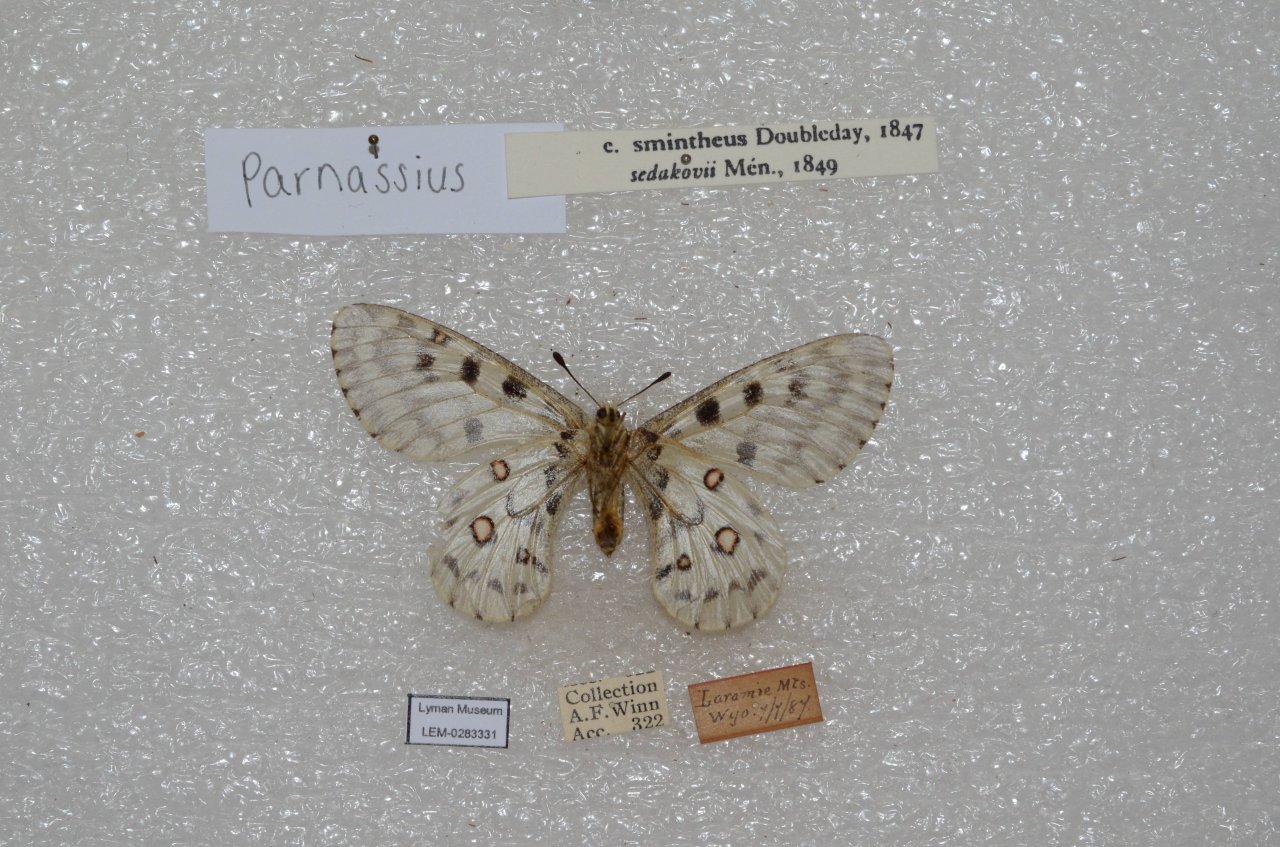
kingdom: Animalia
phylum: Arthropoda
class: Insecta
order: Lepidoptera
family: Papilionidae
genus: Parnassius
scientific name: Parnassius smintheus
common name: Rocky Mountain Parnassian
